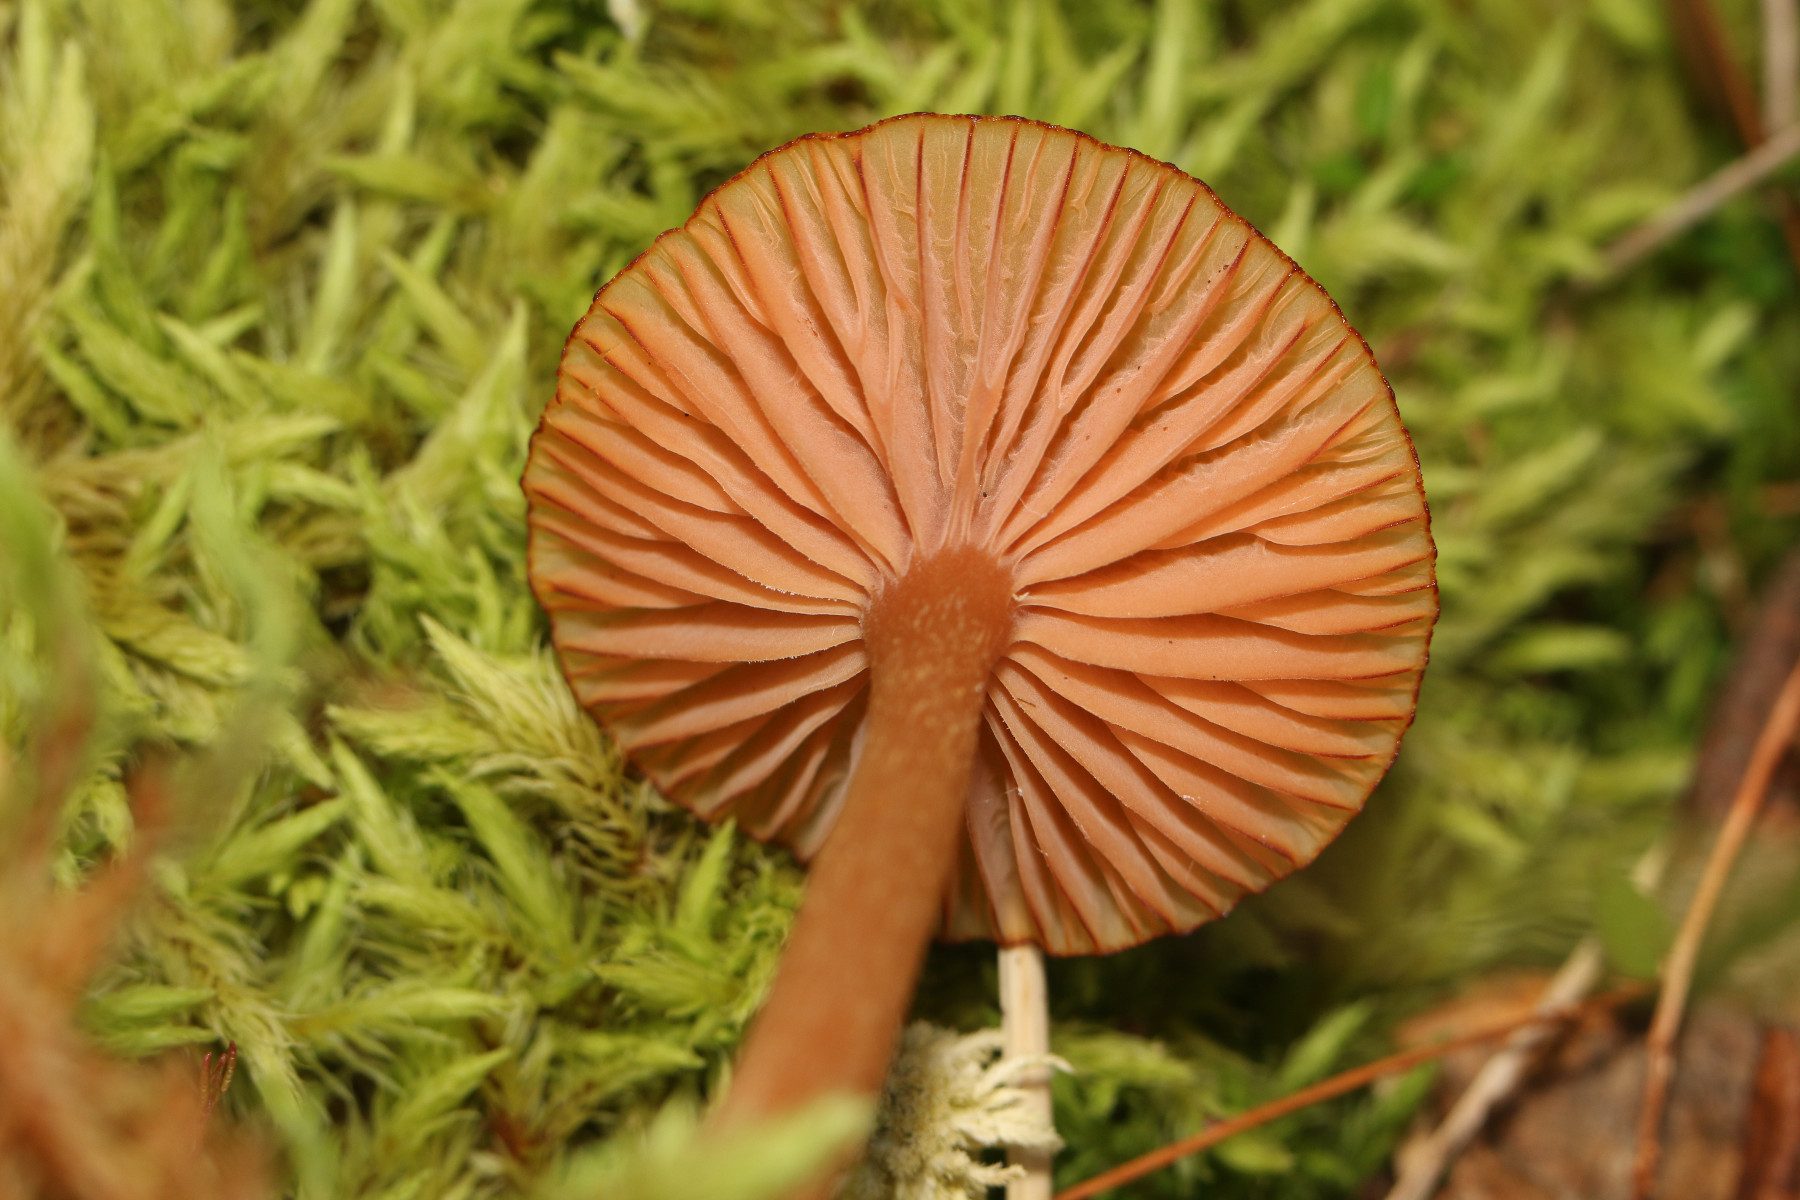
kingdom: Fungi
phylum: Basidiomycota
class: Agaricomycetes
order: Agaricales
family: Hydnangiaceae
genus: Laccaria
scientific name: Laccaria laccata
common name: rød ametysthat
